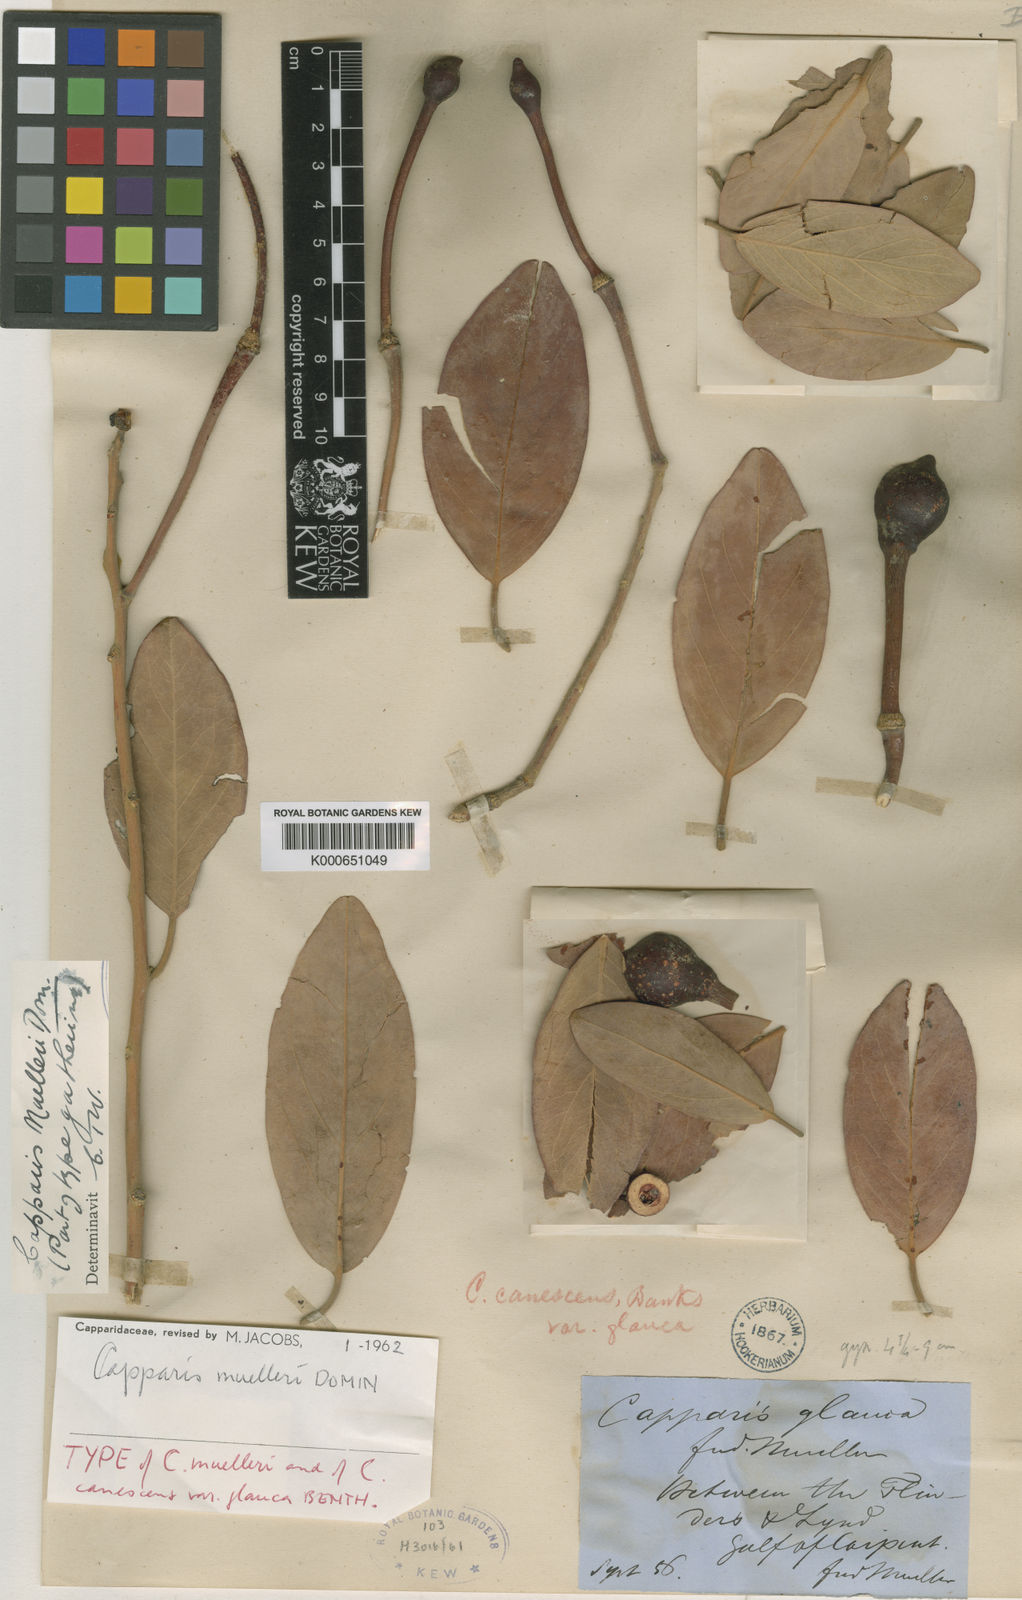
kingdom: Plantae
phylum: Tracheophyta
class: Magnoliopsida
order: Brassicales
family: Capparaceae
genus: Capparis
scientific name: Capparis canescens
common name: Native caper
